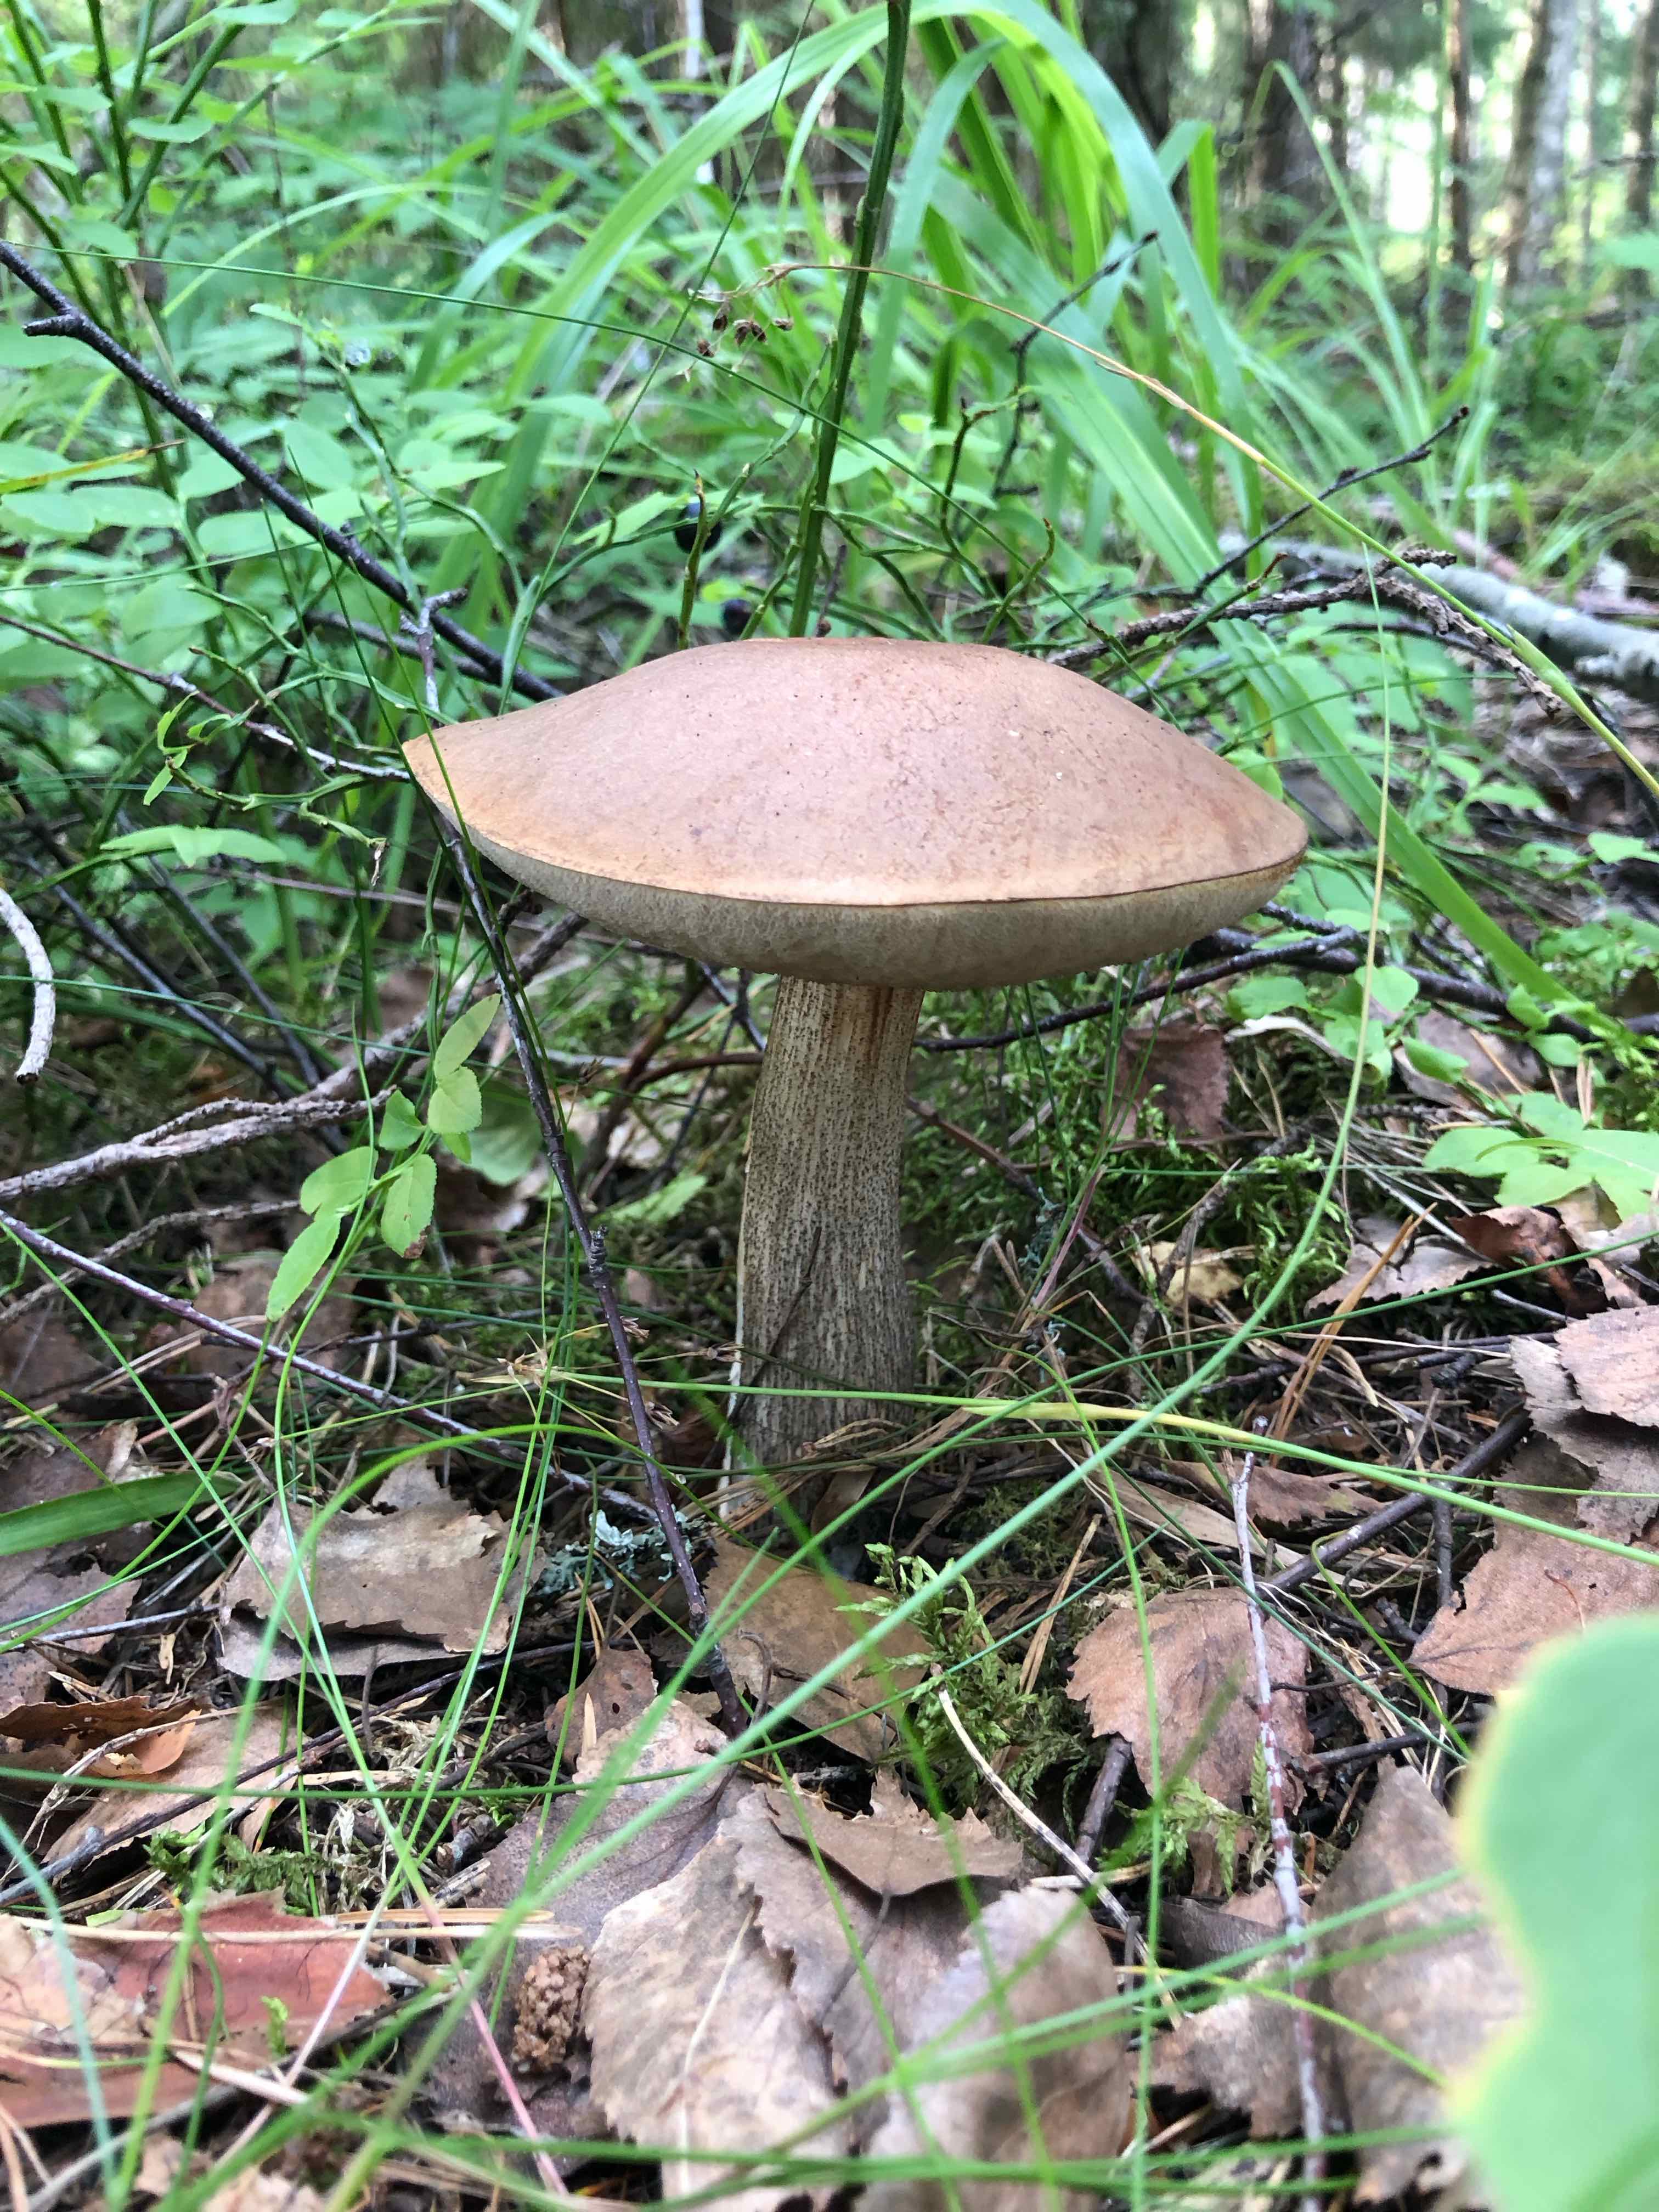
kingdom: Fungi
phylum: Basidiomycota
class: Agaricomycetes
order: Boletales
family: Boletaceae
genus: Leccinum
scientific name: Leccinum
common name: skælrørhat
